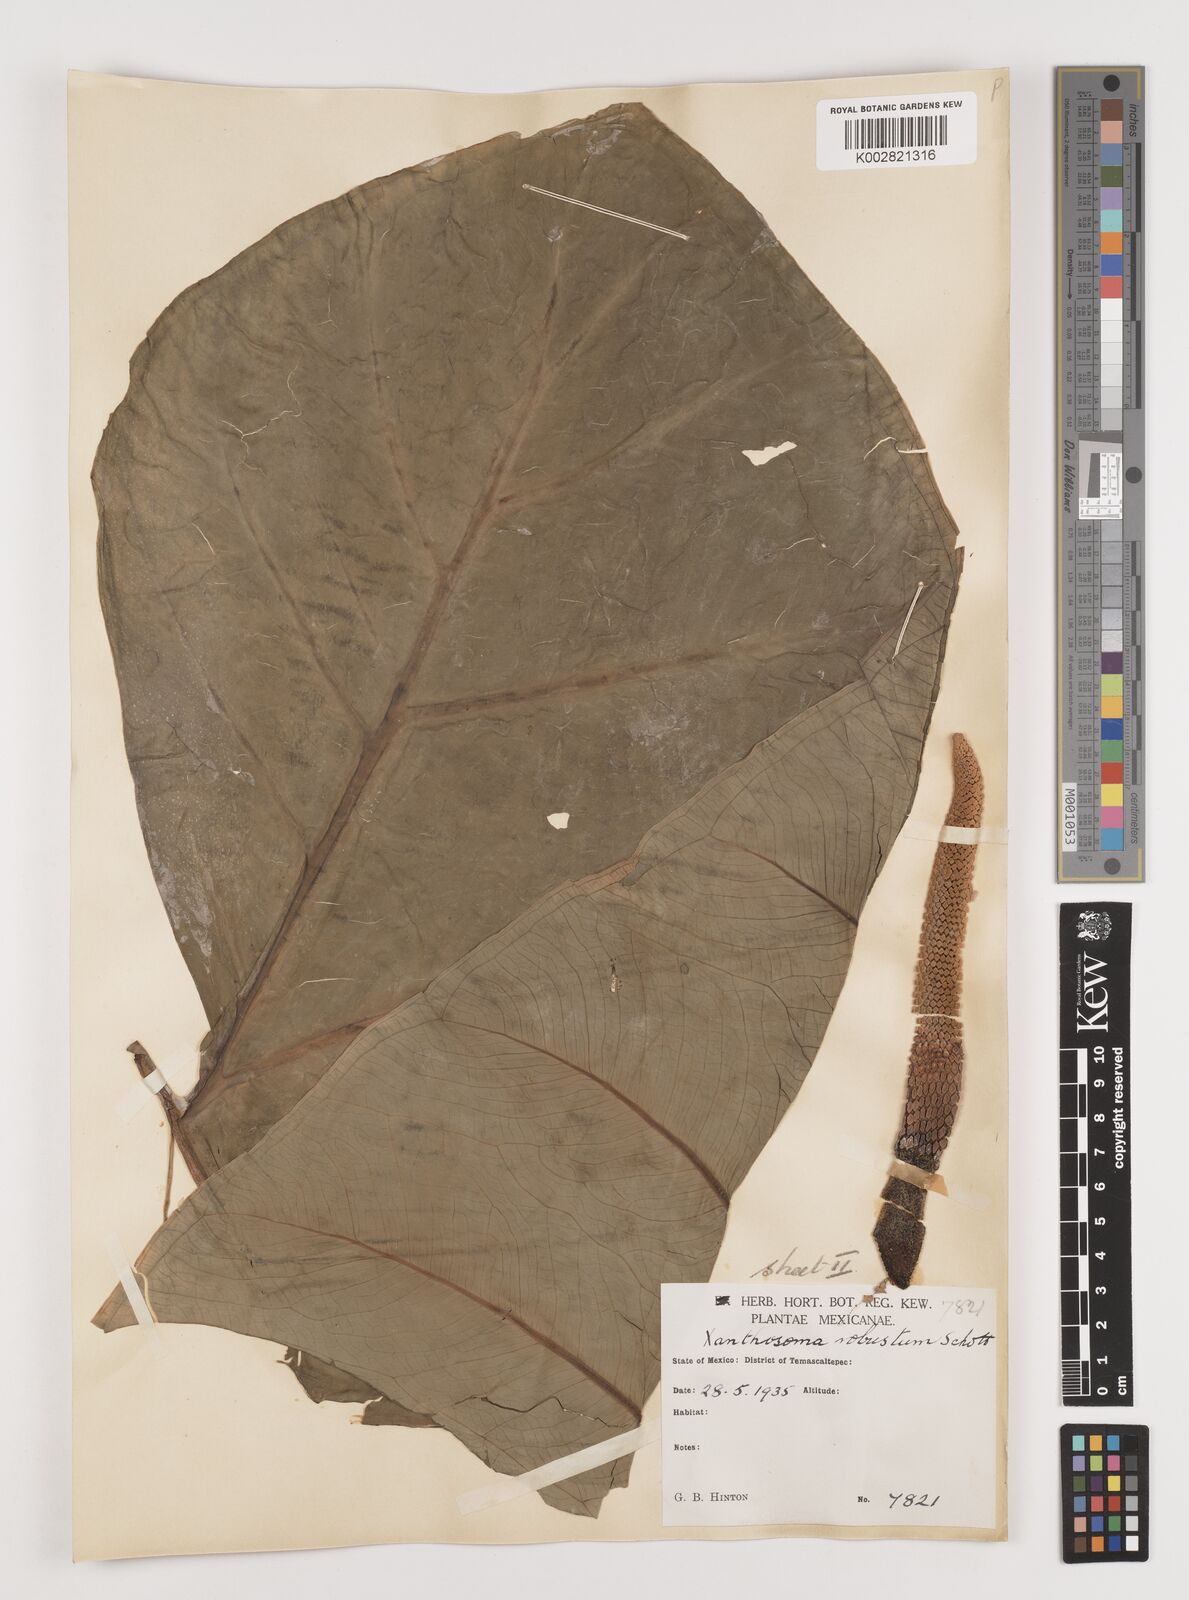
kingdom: Plantae
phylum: Tracheophyta
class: Liliopsida
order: Alismatales
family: Araceae
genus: Xanthosoma
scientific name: Xanthosoma robustum
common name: Capote
